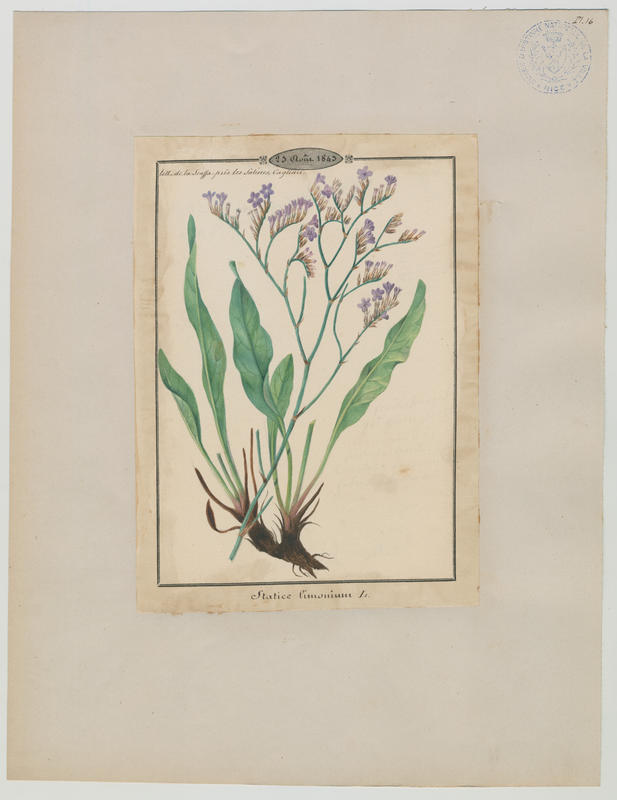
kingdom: Plantae
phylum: Tracheophyta
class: Magnoliopsida
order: Caryophyllales
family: Plumbaginaceae
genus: Limonium
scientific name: Limonium vulgare
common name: Common sea-lavender
